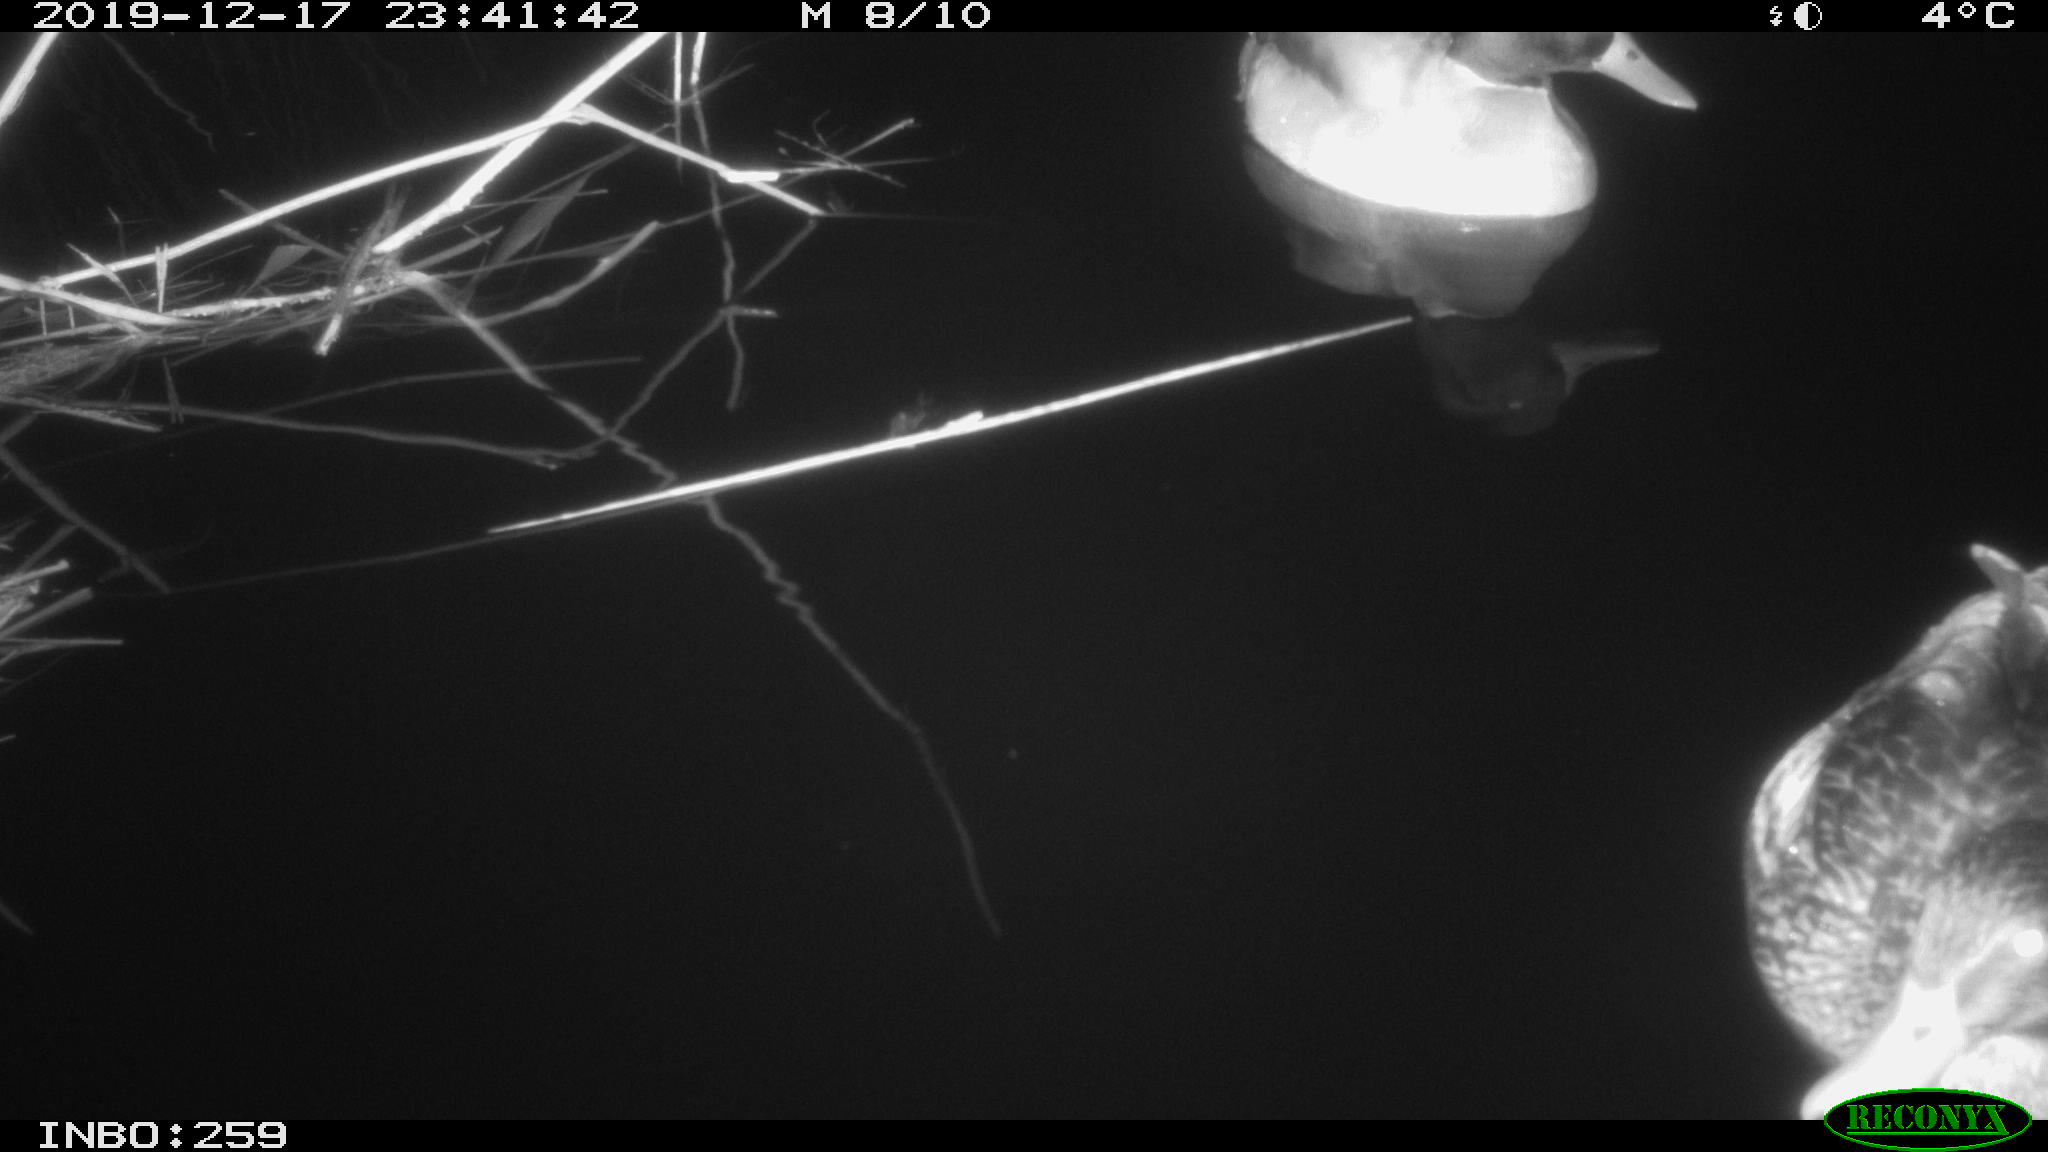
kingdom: Animalia
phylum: Chordata
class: Aves
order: Anseriformes
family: Anatidae
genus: Anas
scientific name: Anas platyrhynchos
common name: Mallard
